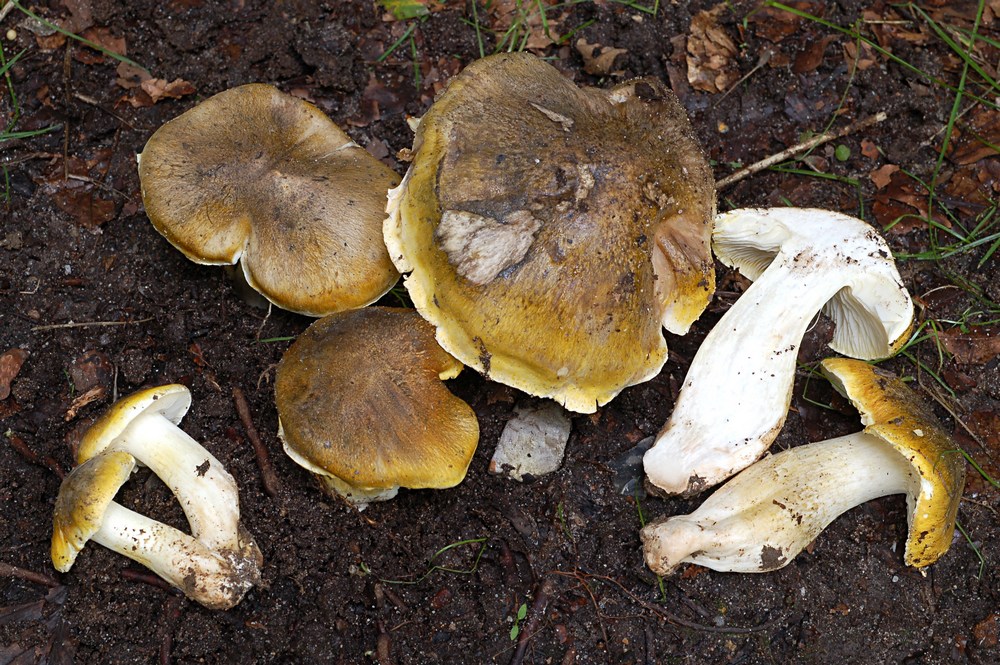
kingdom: Fungi
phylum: Basidiomycota
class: Agaricomycetes
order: Agaricales
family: Tricholomataceae
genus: Tricholoma
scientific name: Tricholoma umbonatum
